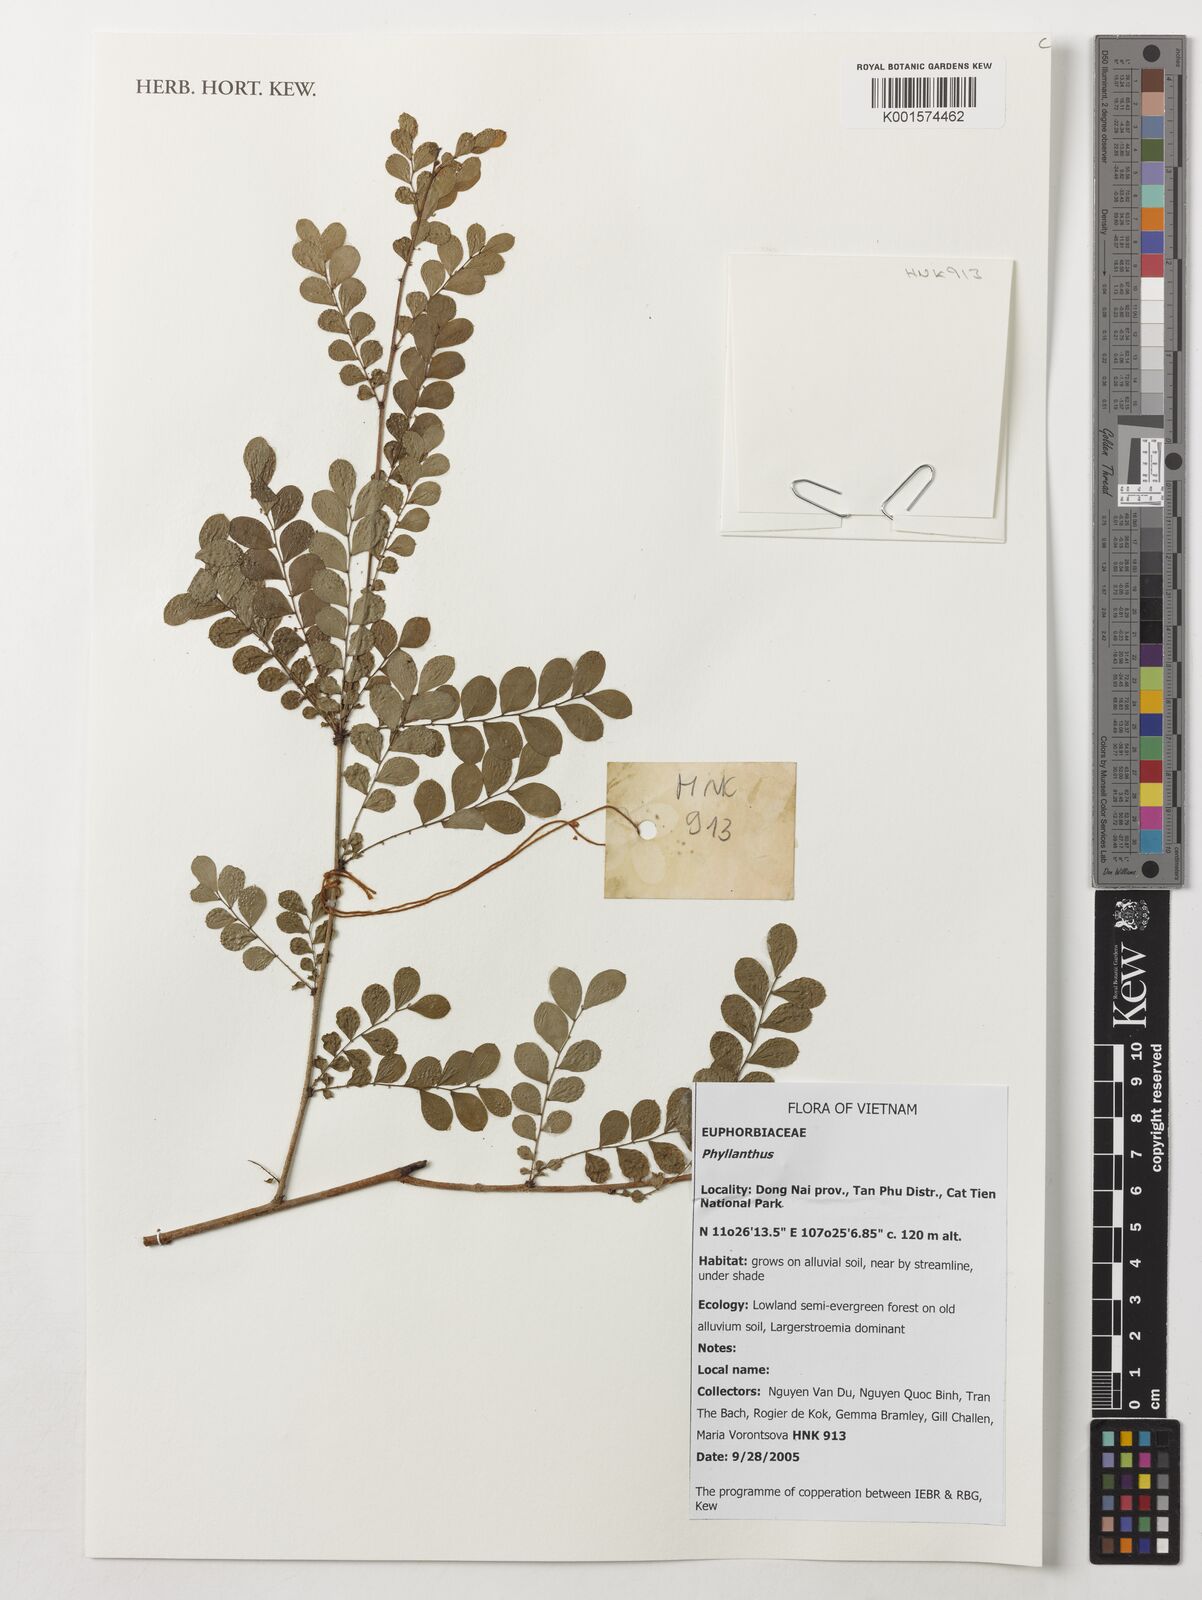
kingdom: Plantae
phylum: Tracheophyta
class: Magnoliopsida
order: Malpighiales
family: Phyllanthaceae
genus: Phyllanthus
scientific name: Phyllanthus
